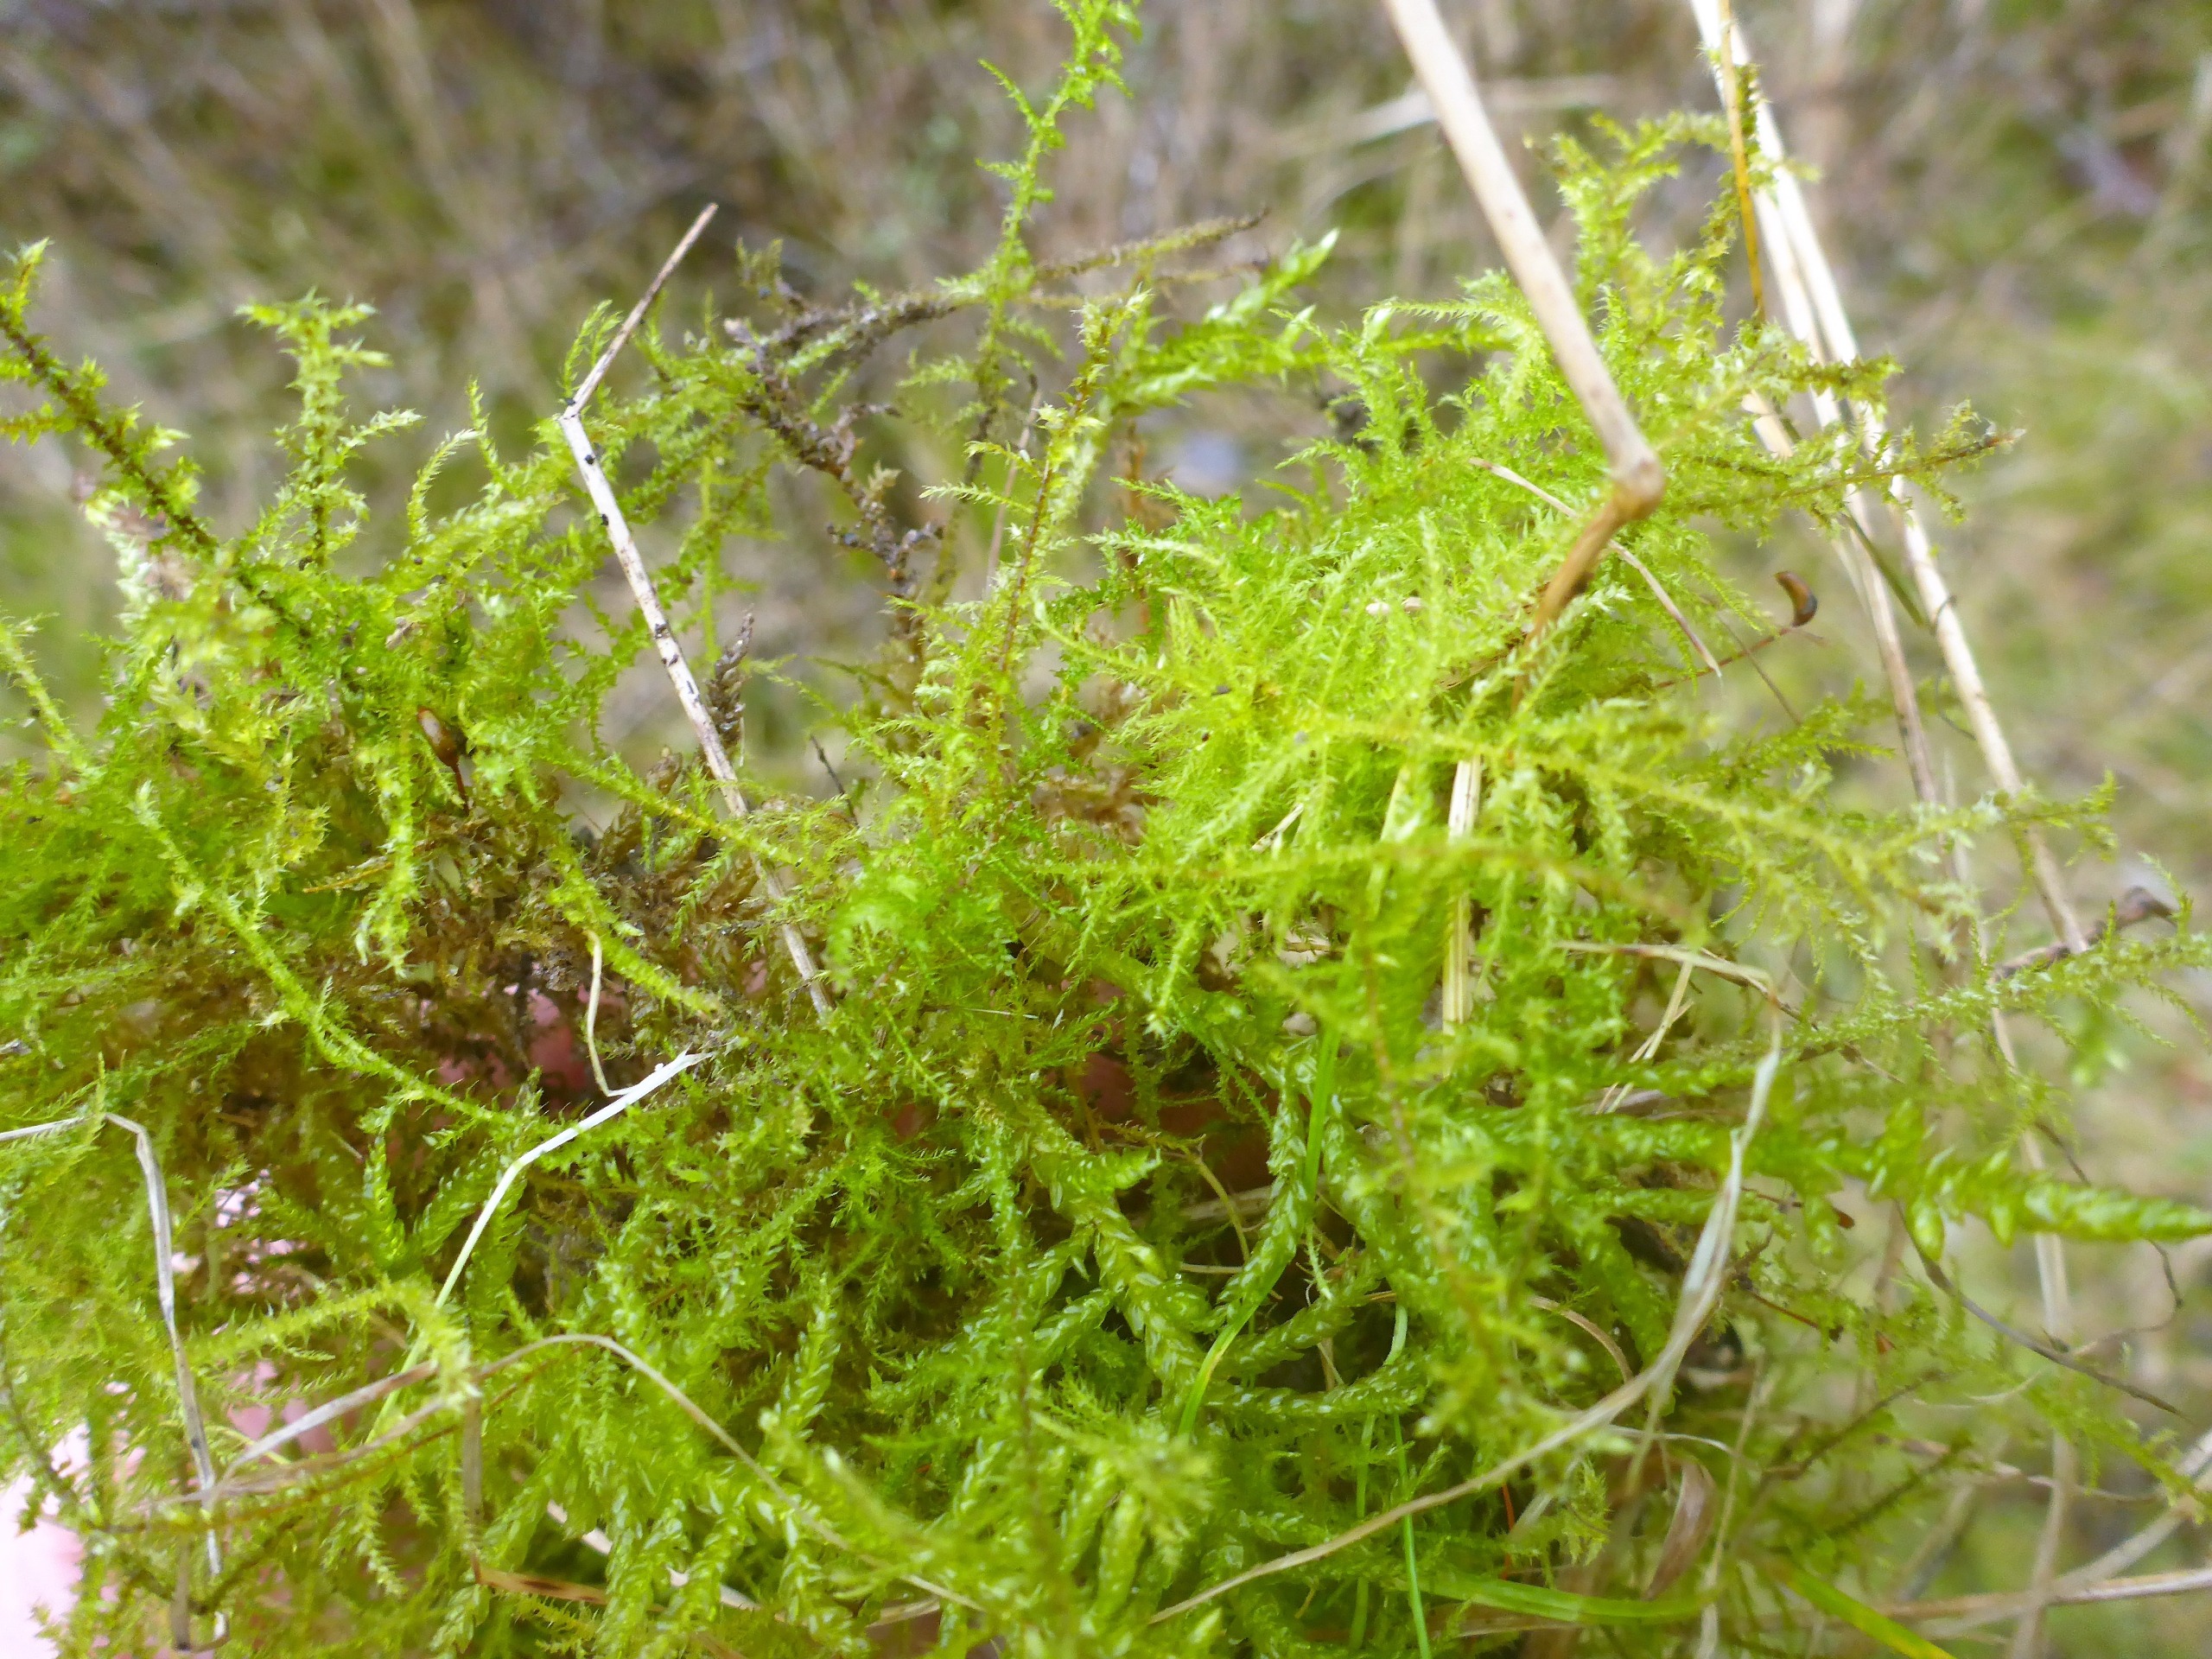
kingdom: Plantae
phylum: Bryophyta
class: Bryopsida
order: Hypnales
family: Brachytheciaceae
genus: Kindbergia
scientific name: Kindbergia praelonga
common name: Forskelligbladet vortetand
